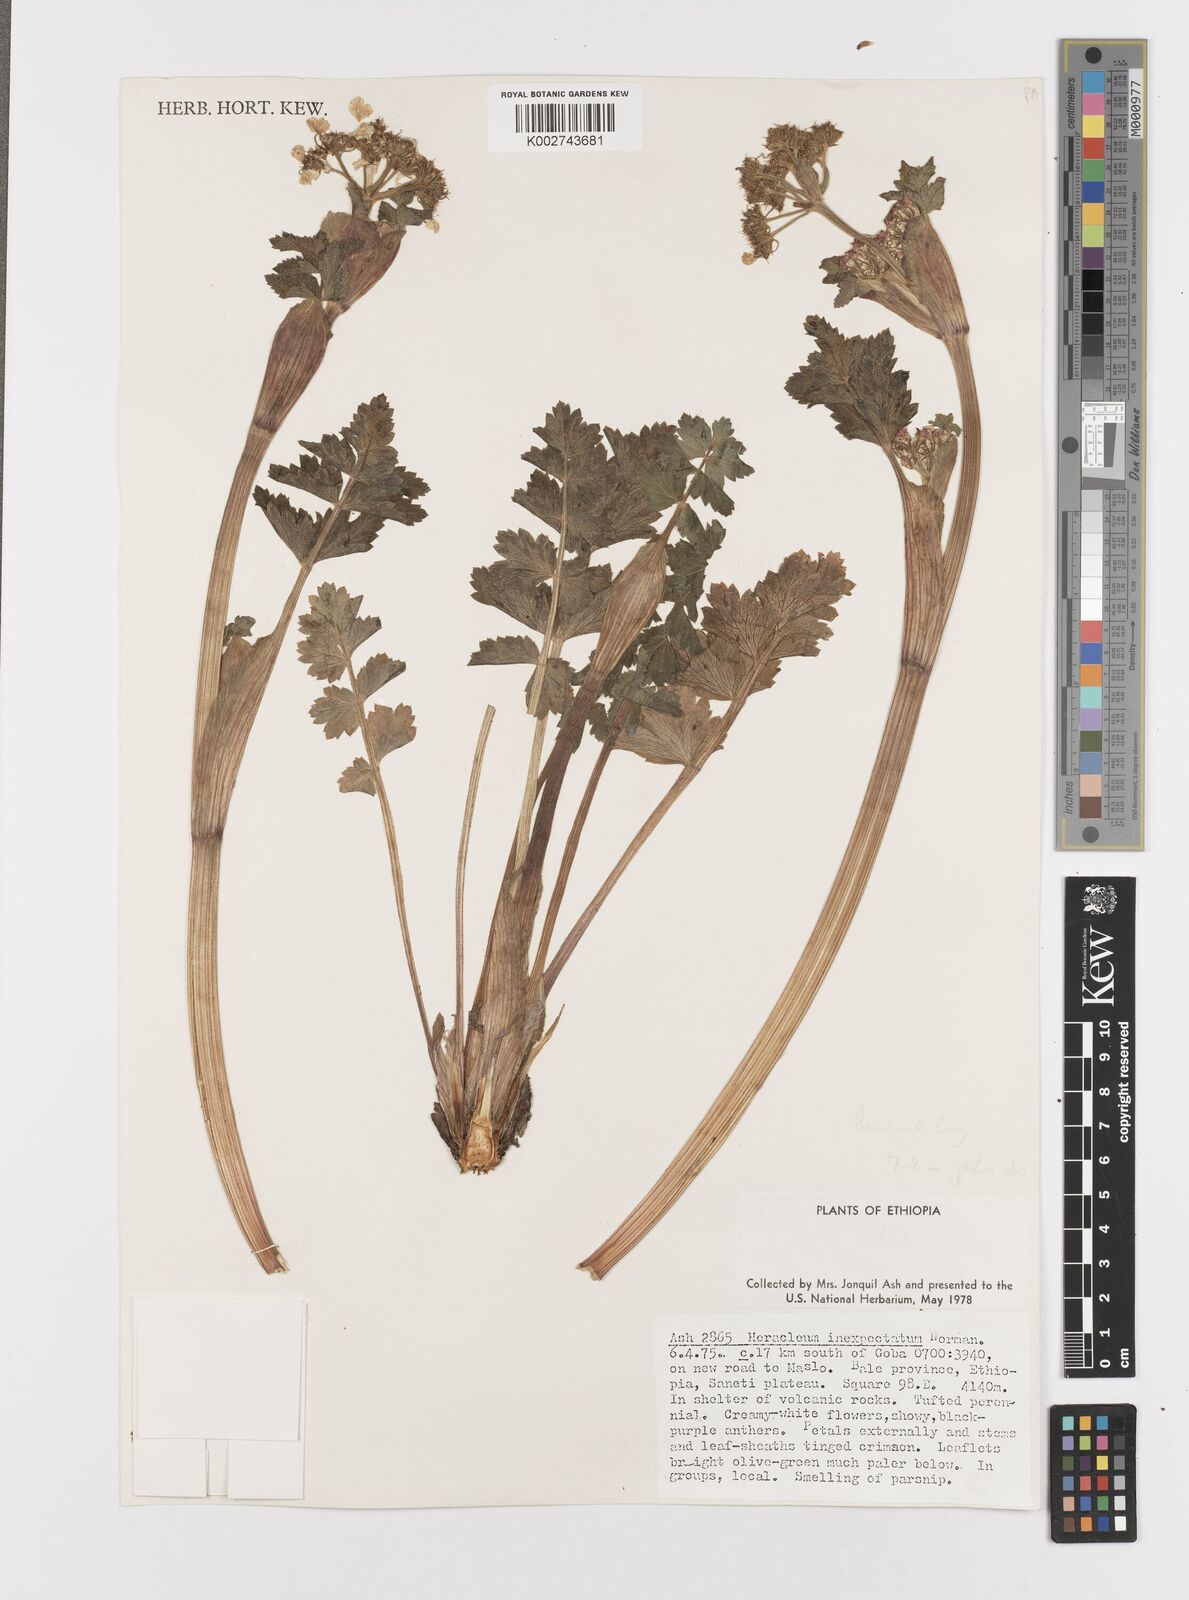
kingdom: Plantae
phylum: Tracheophyta
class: Magnoliopsida
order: Apiales
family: Apiaceae
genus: Heracleum
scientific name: Heracleum elgonense
